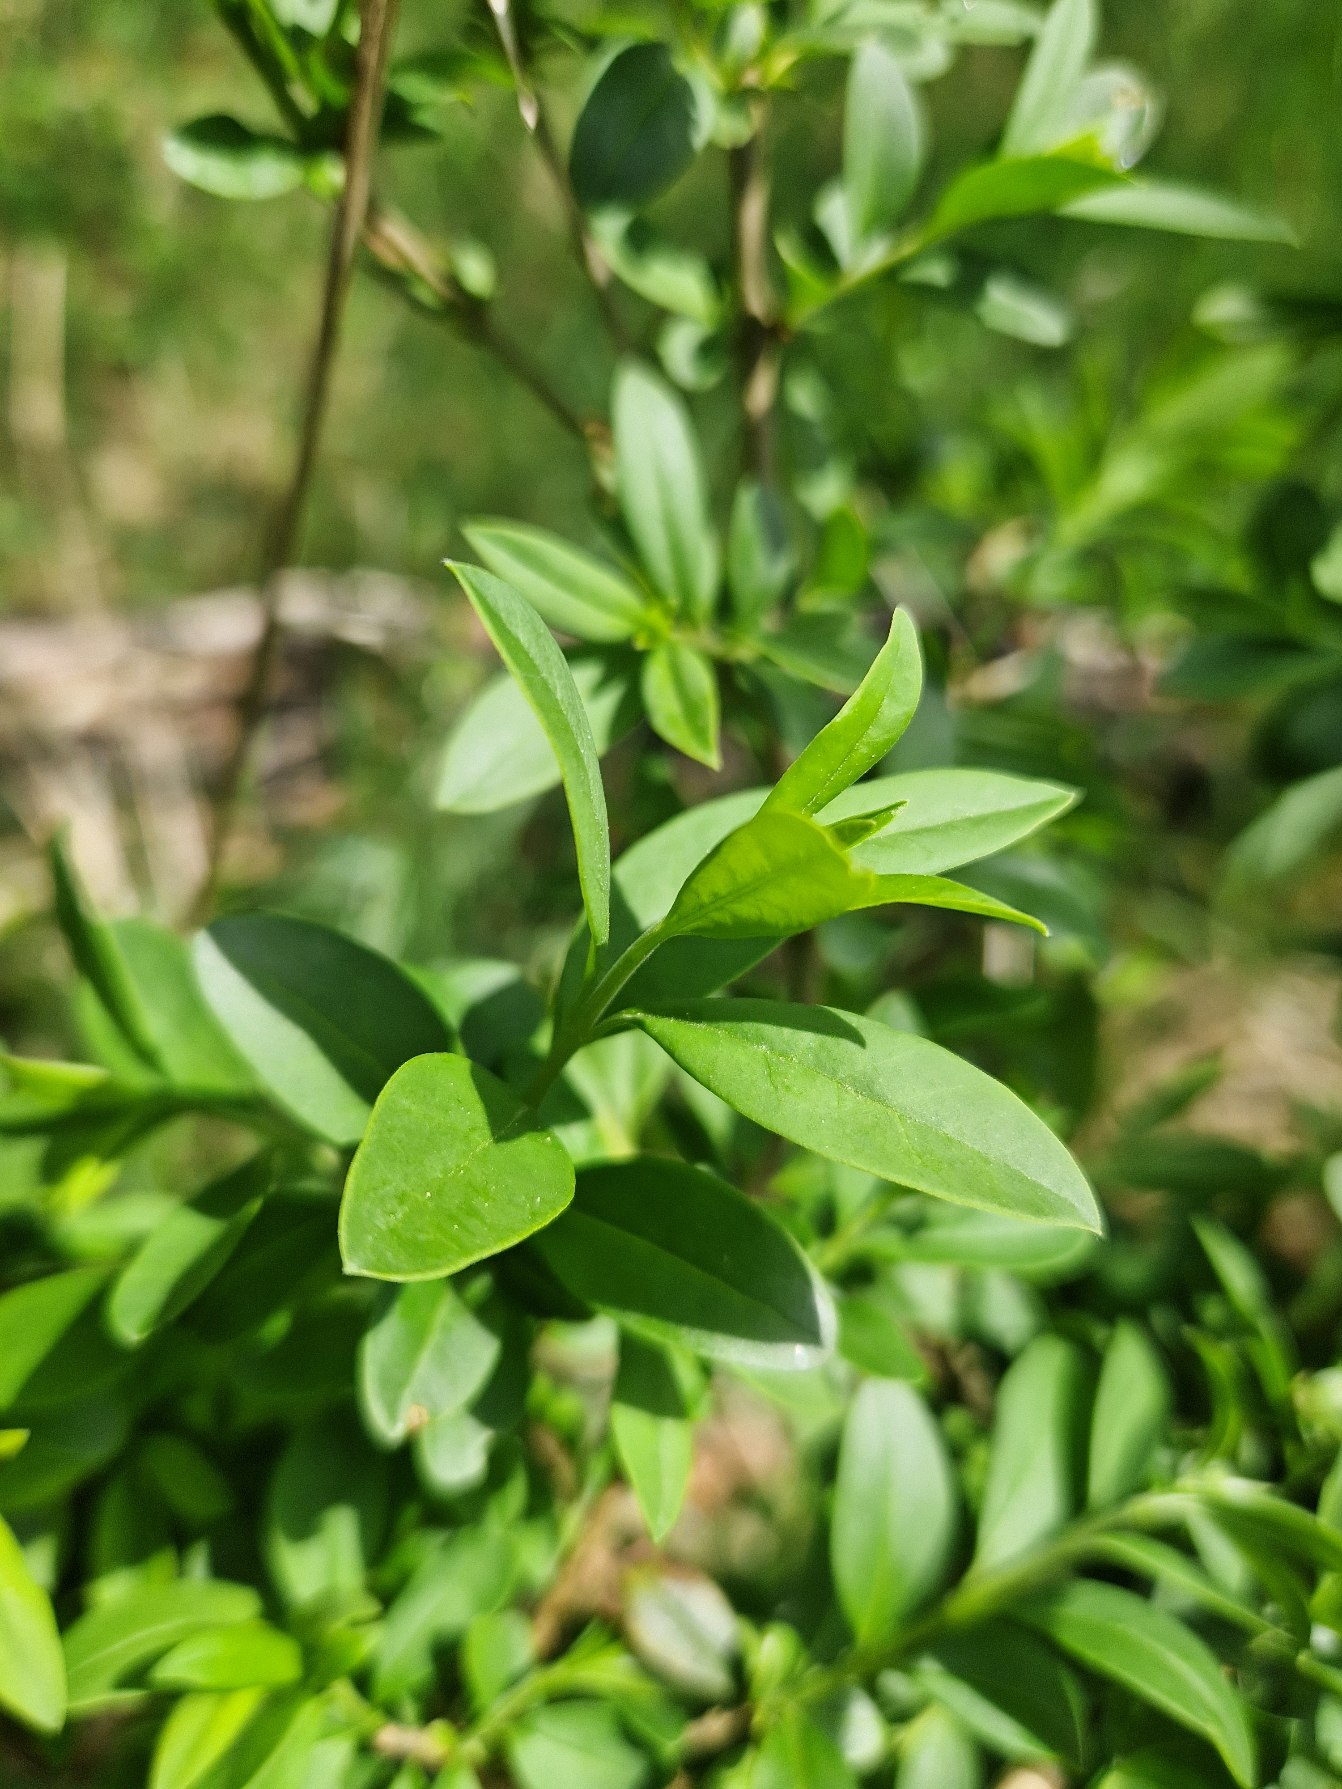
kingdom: Plantae
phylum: Tracheophyta
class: Magnoliopsida
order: Lamiales
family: Oleaceae
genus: Ligustrum
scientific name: Ligustrum vulgare
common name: Liguster
